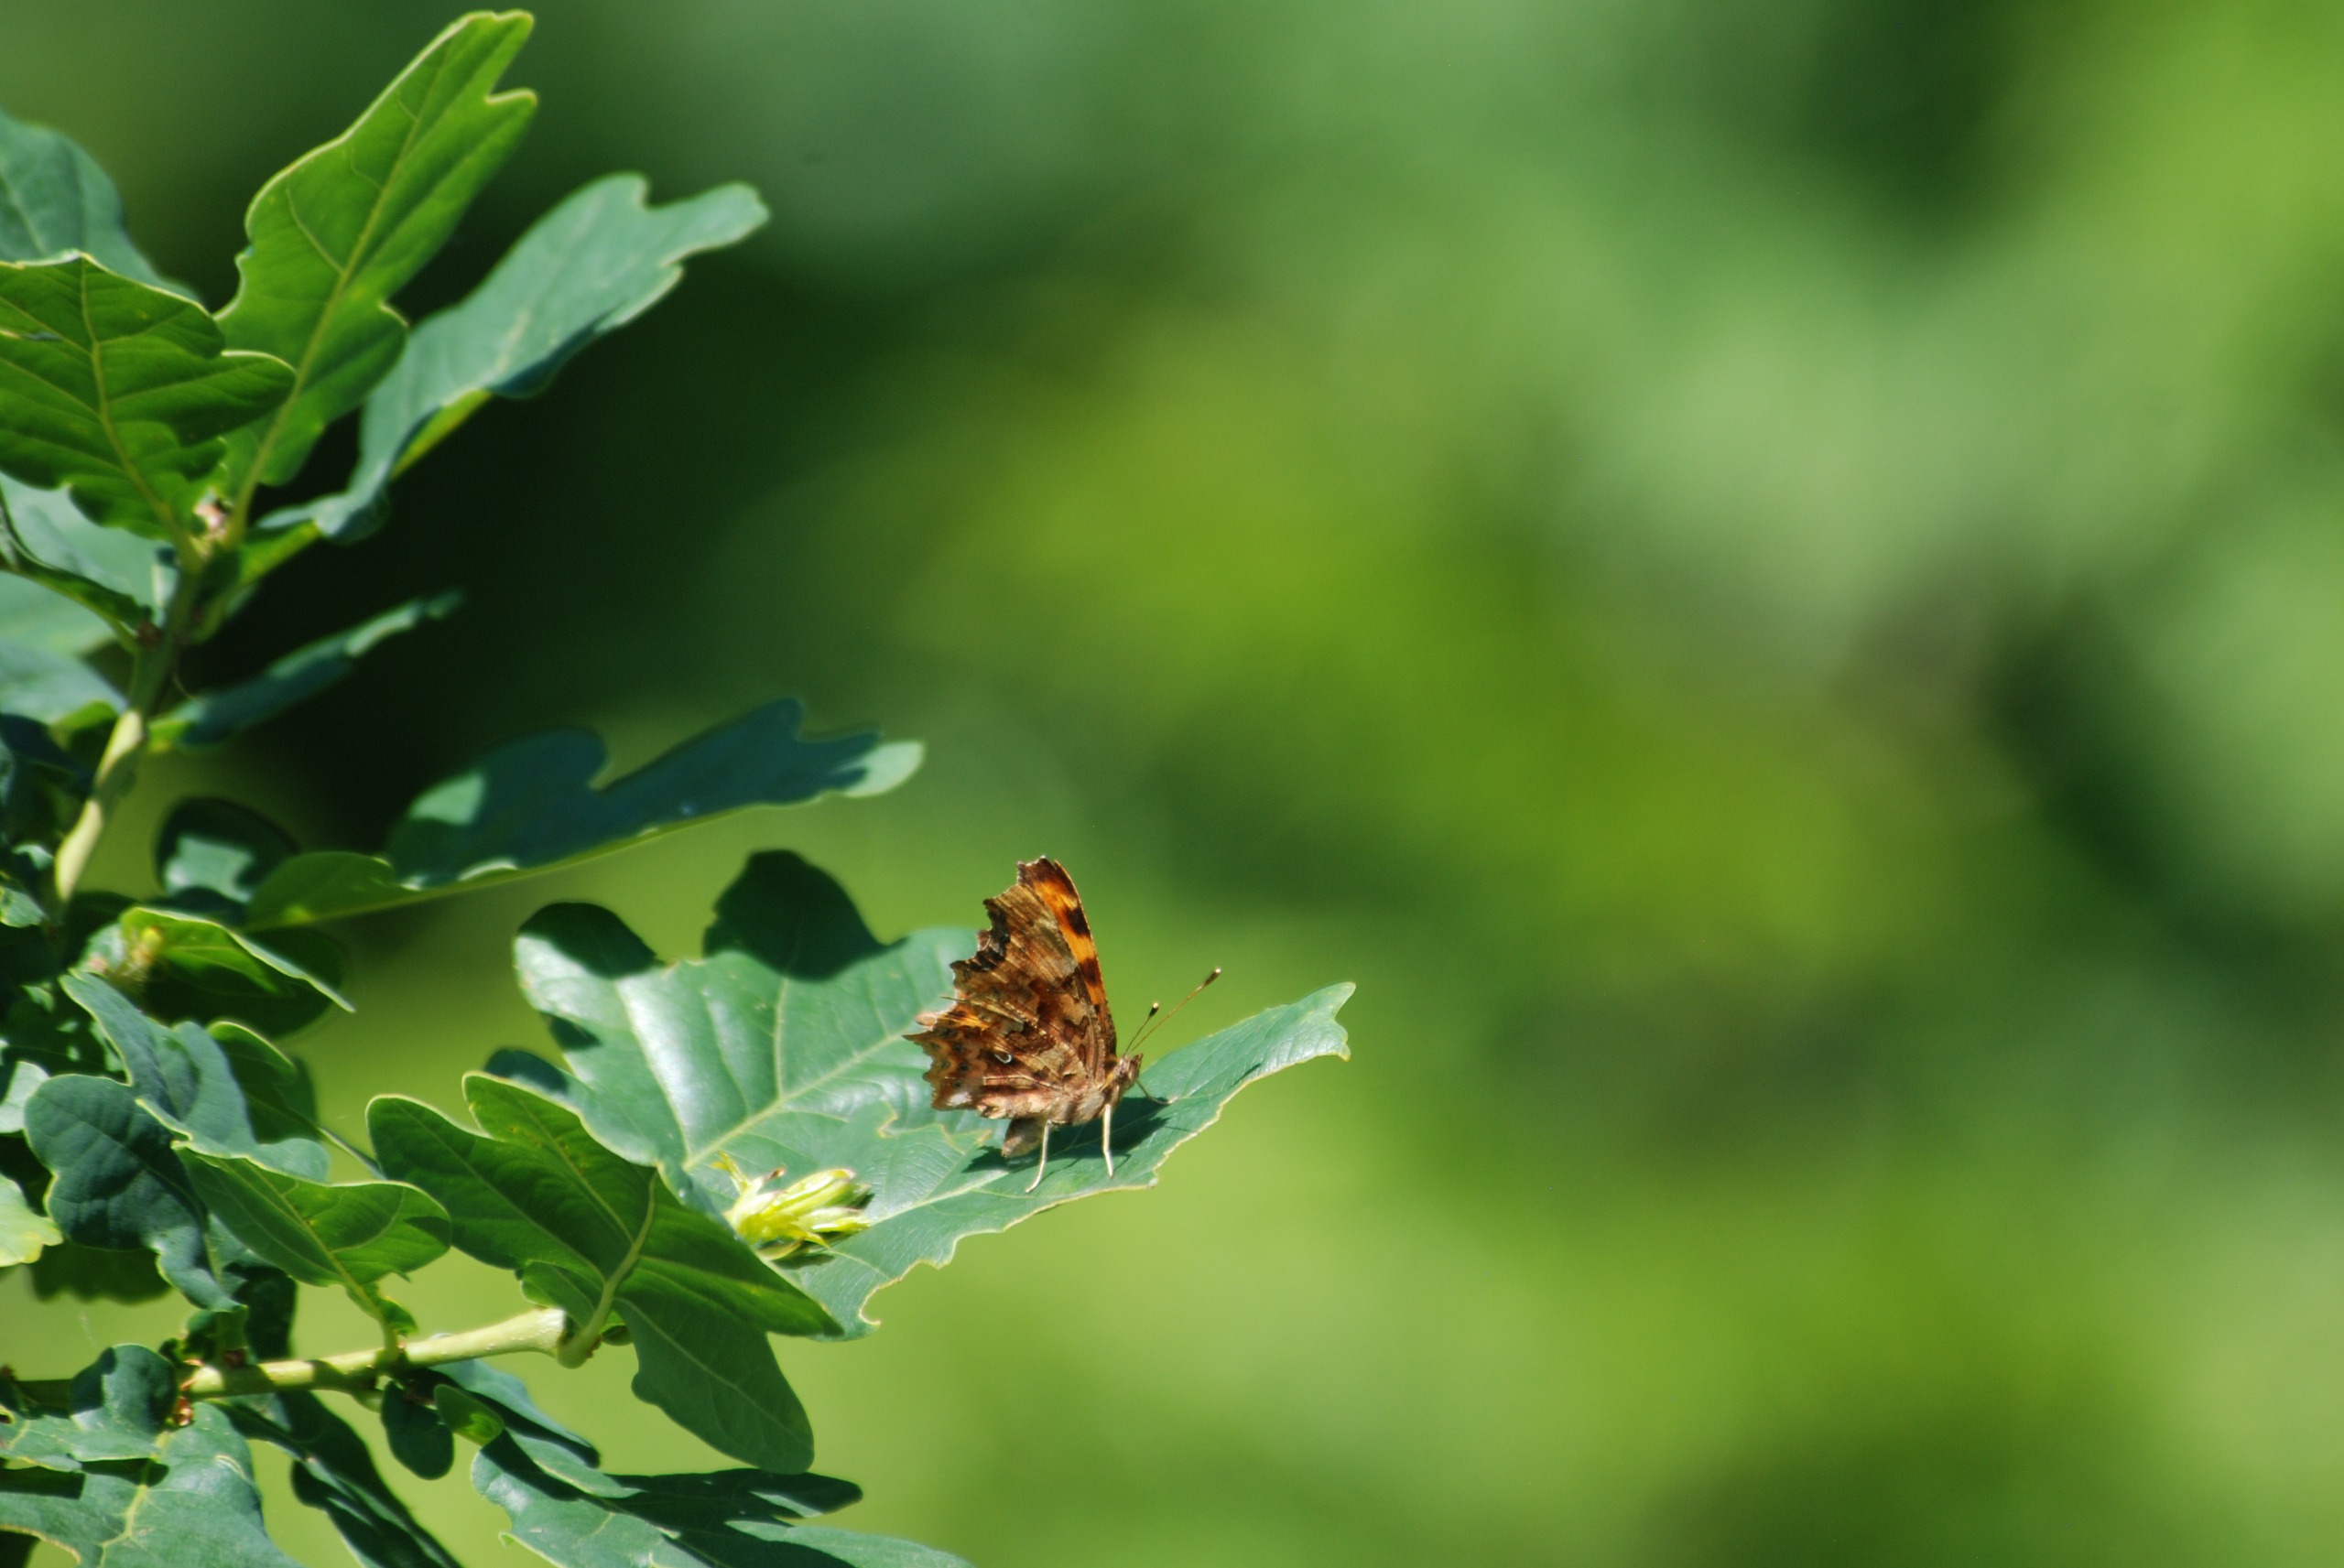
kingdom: Animalia
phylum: Arthropoda
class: Insecta
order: Lepidoptera
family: Nymphalidae
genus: Polygonia
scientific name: Polygonia c-album
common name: Det hvide C
